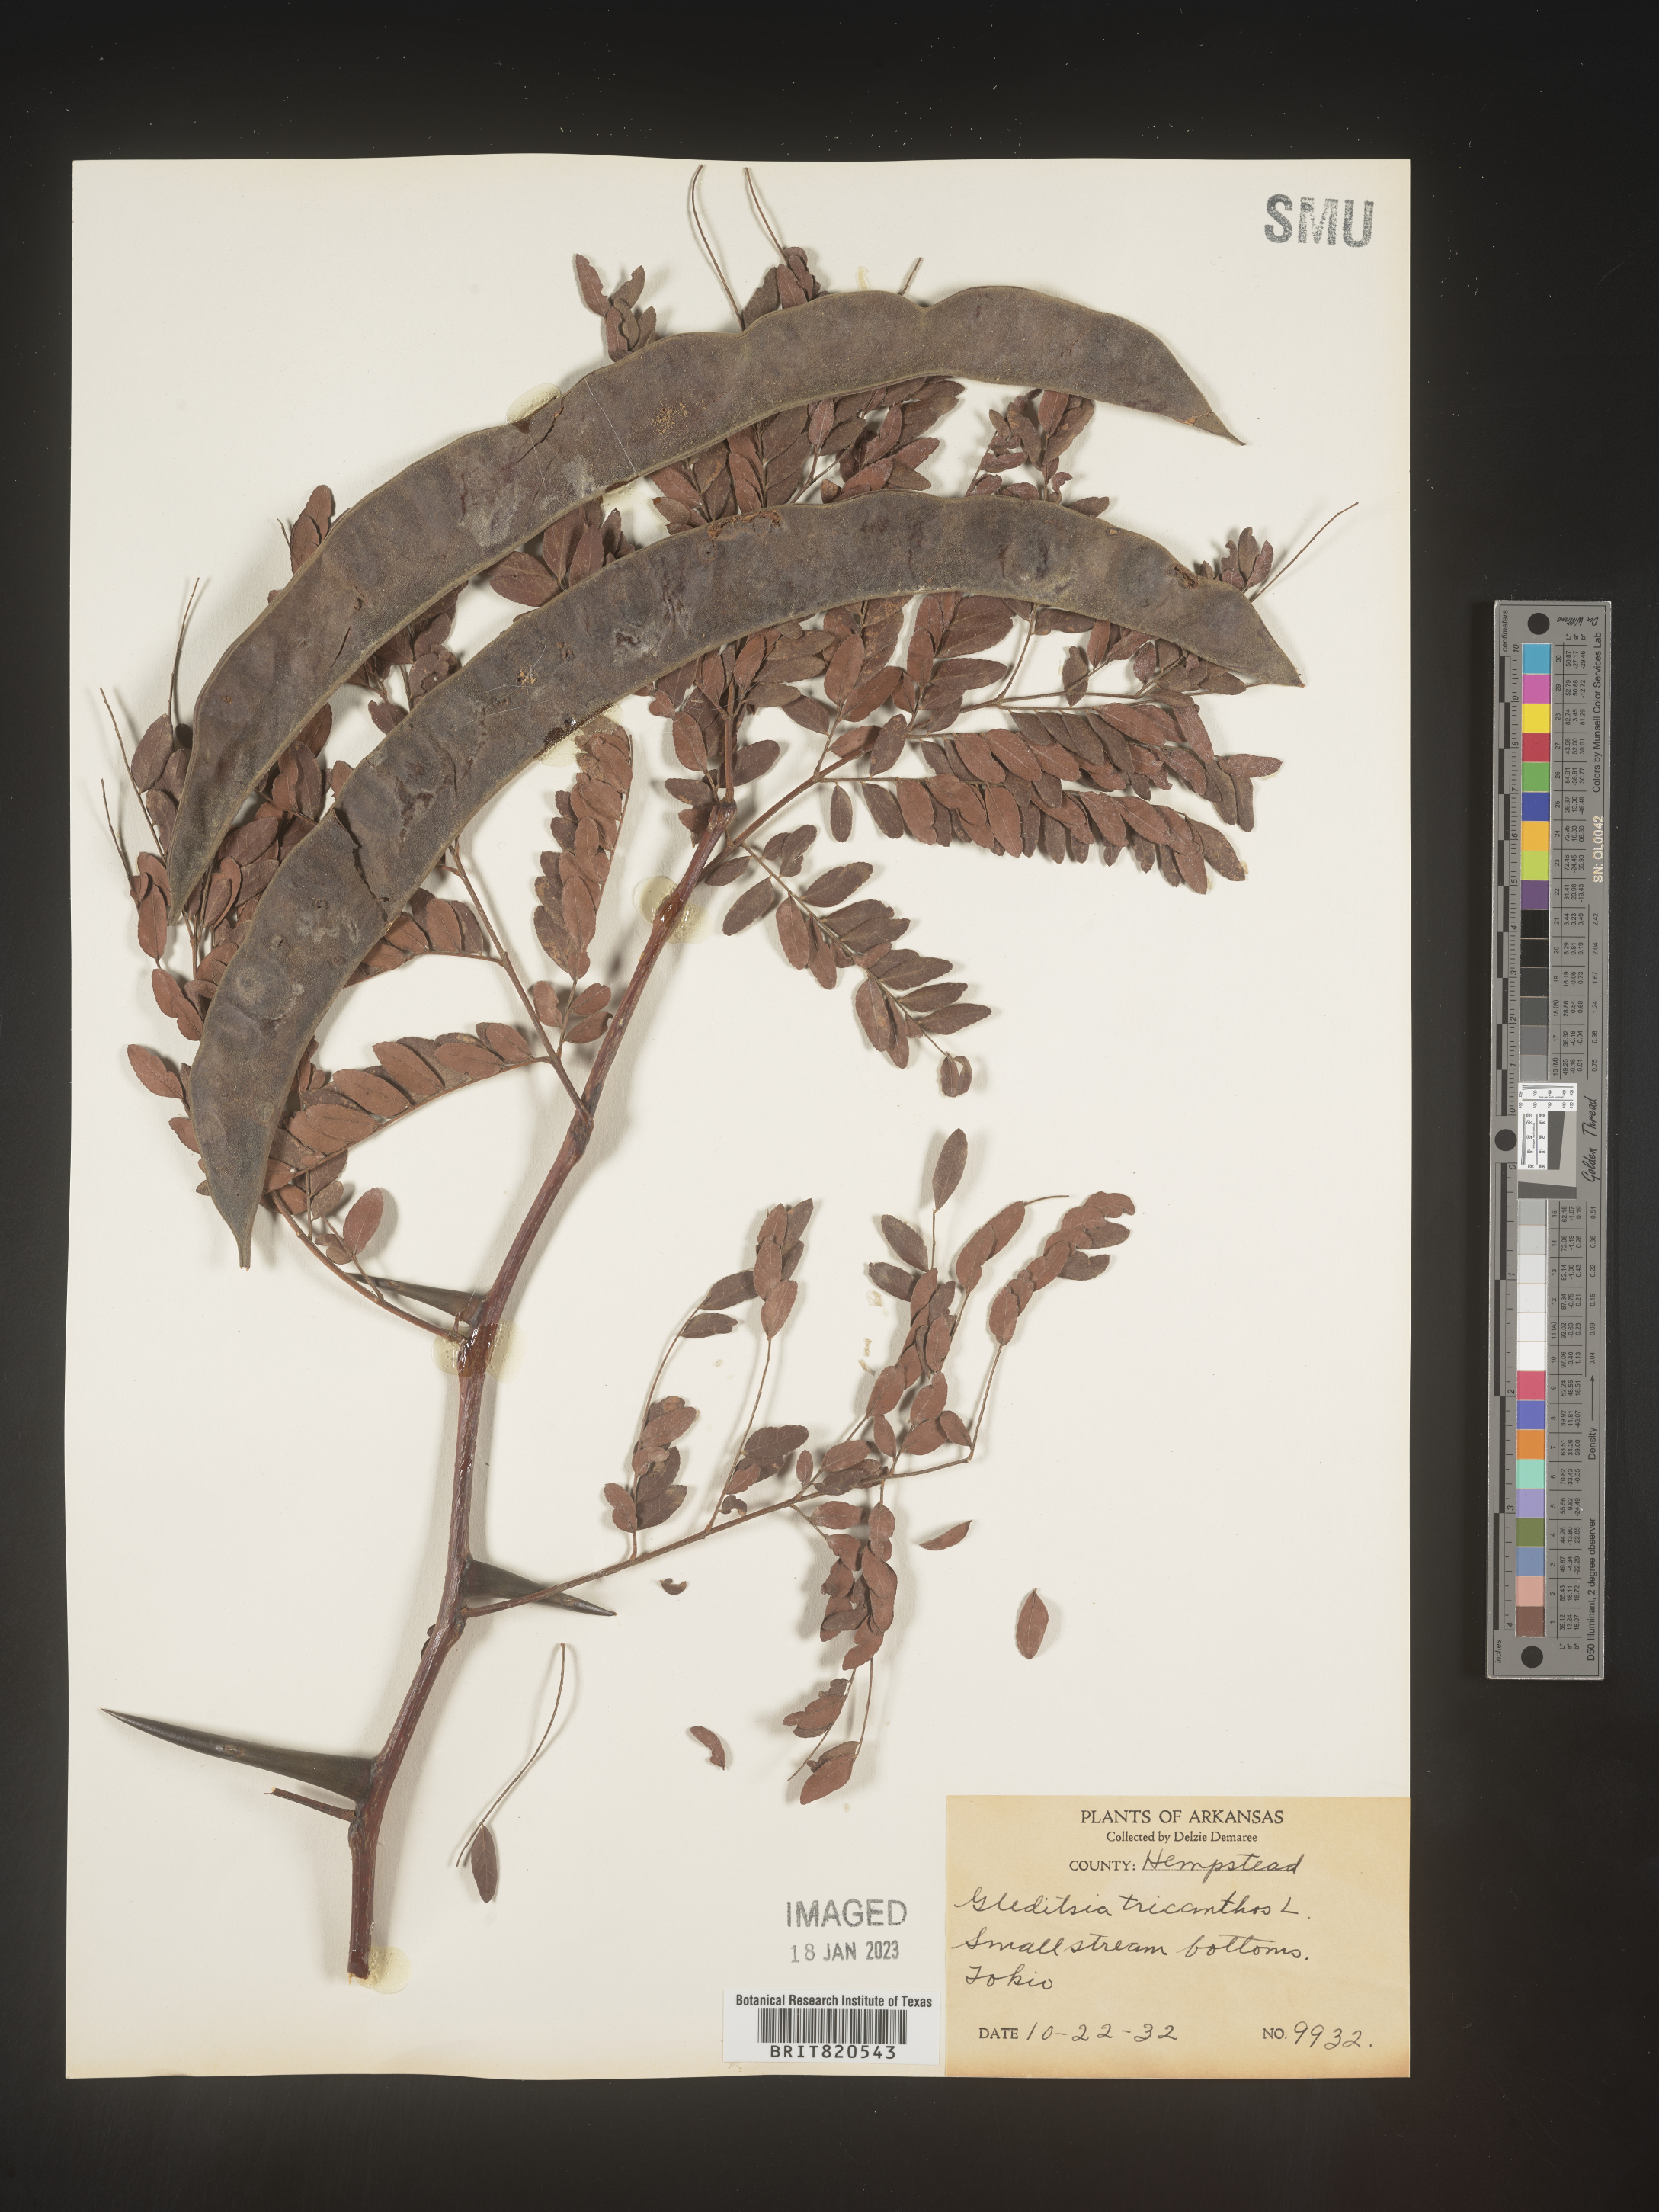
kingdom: Plantae
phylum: Tracheophyta
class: Magnoliopsida
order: Fabales
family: Fabaceae
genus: Gleditsia
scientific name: Gleditsia triacanthos
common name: Common honeylocust
